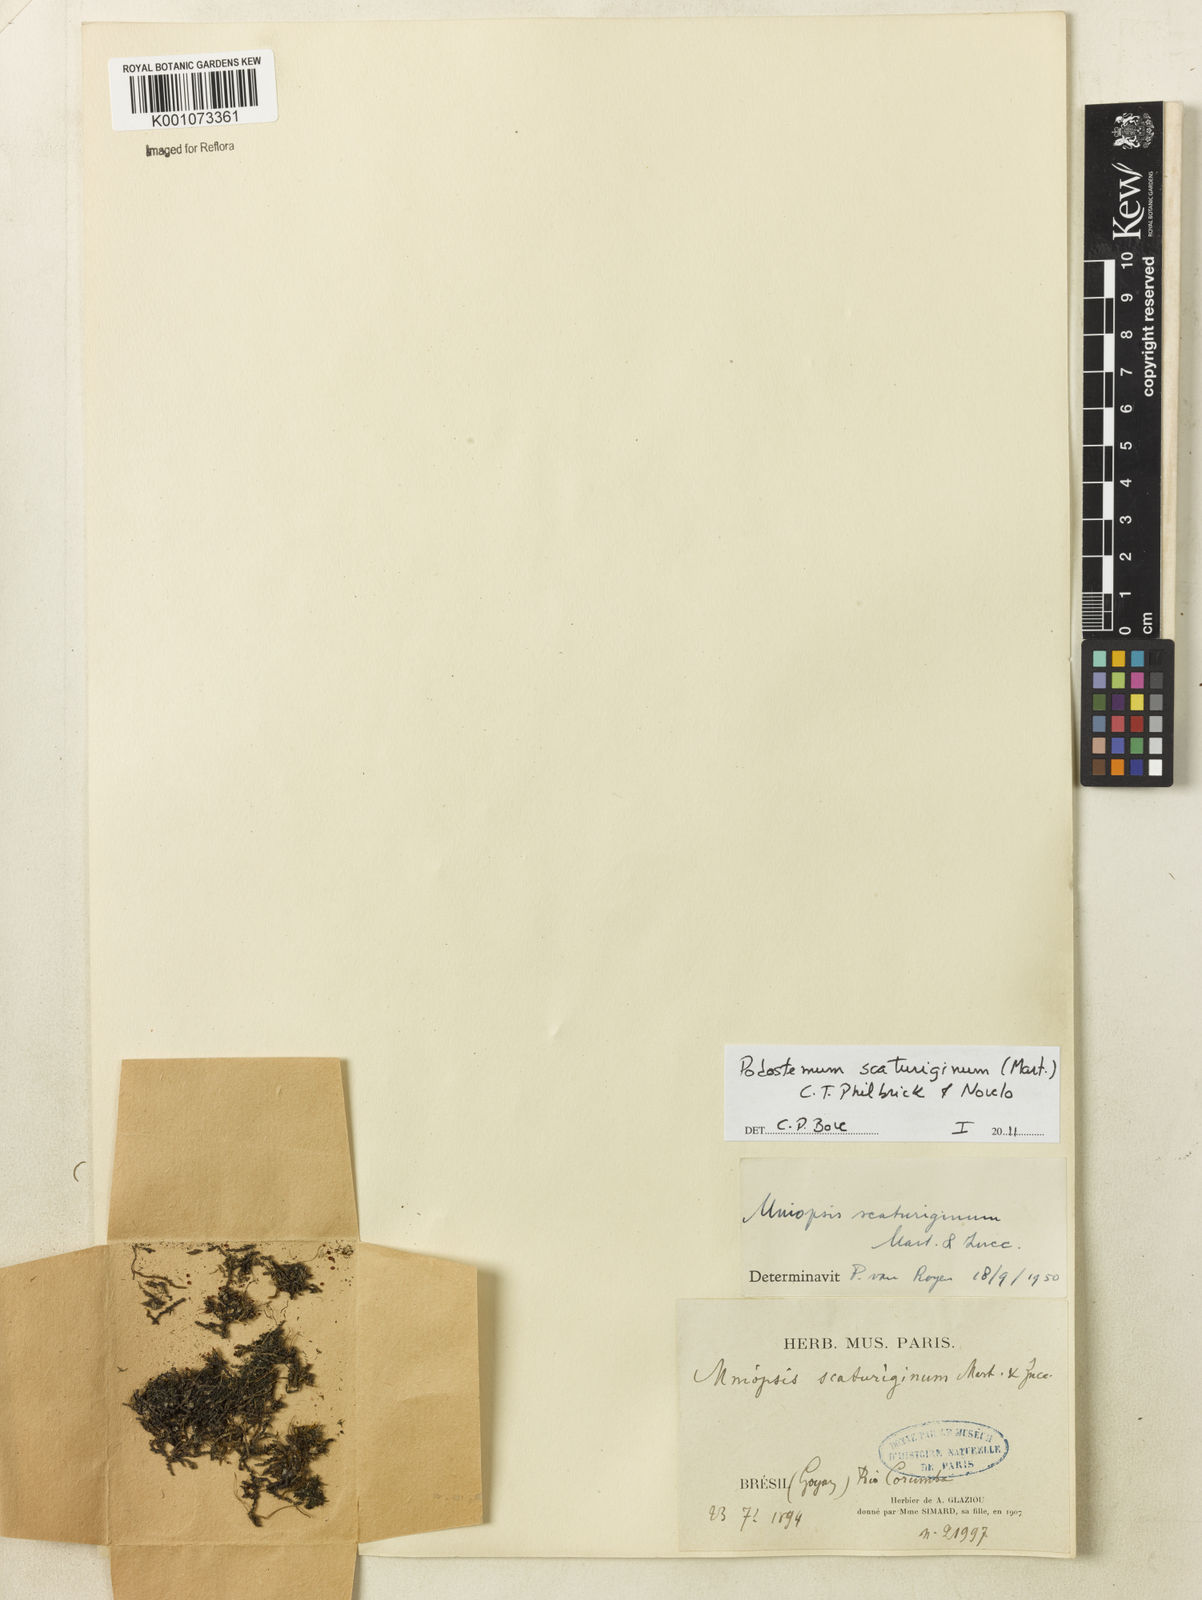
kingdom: Plantae
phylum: Tracheophyta
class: Magnoliopsida
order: Malpighiales
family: Podostemaceae
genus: Podostemum
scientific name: Podostemum scaturiginum
